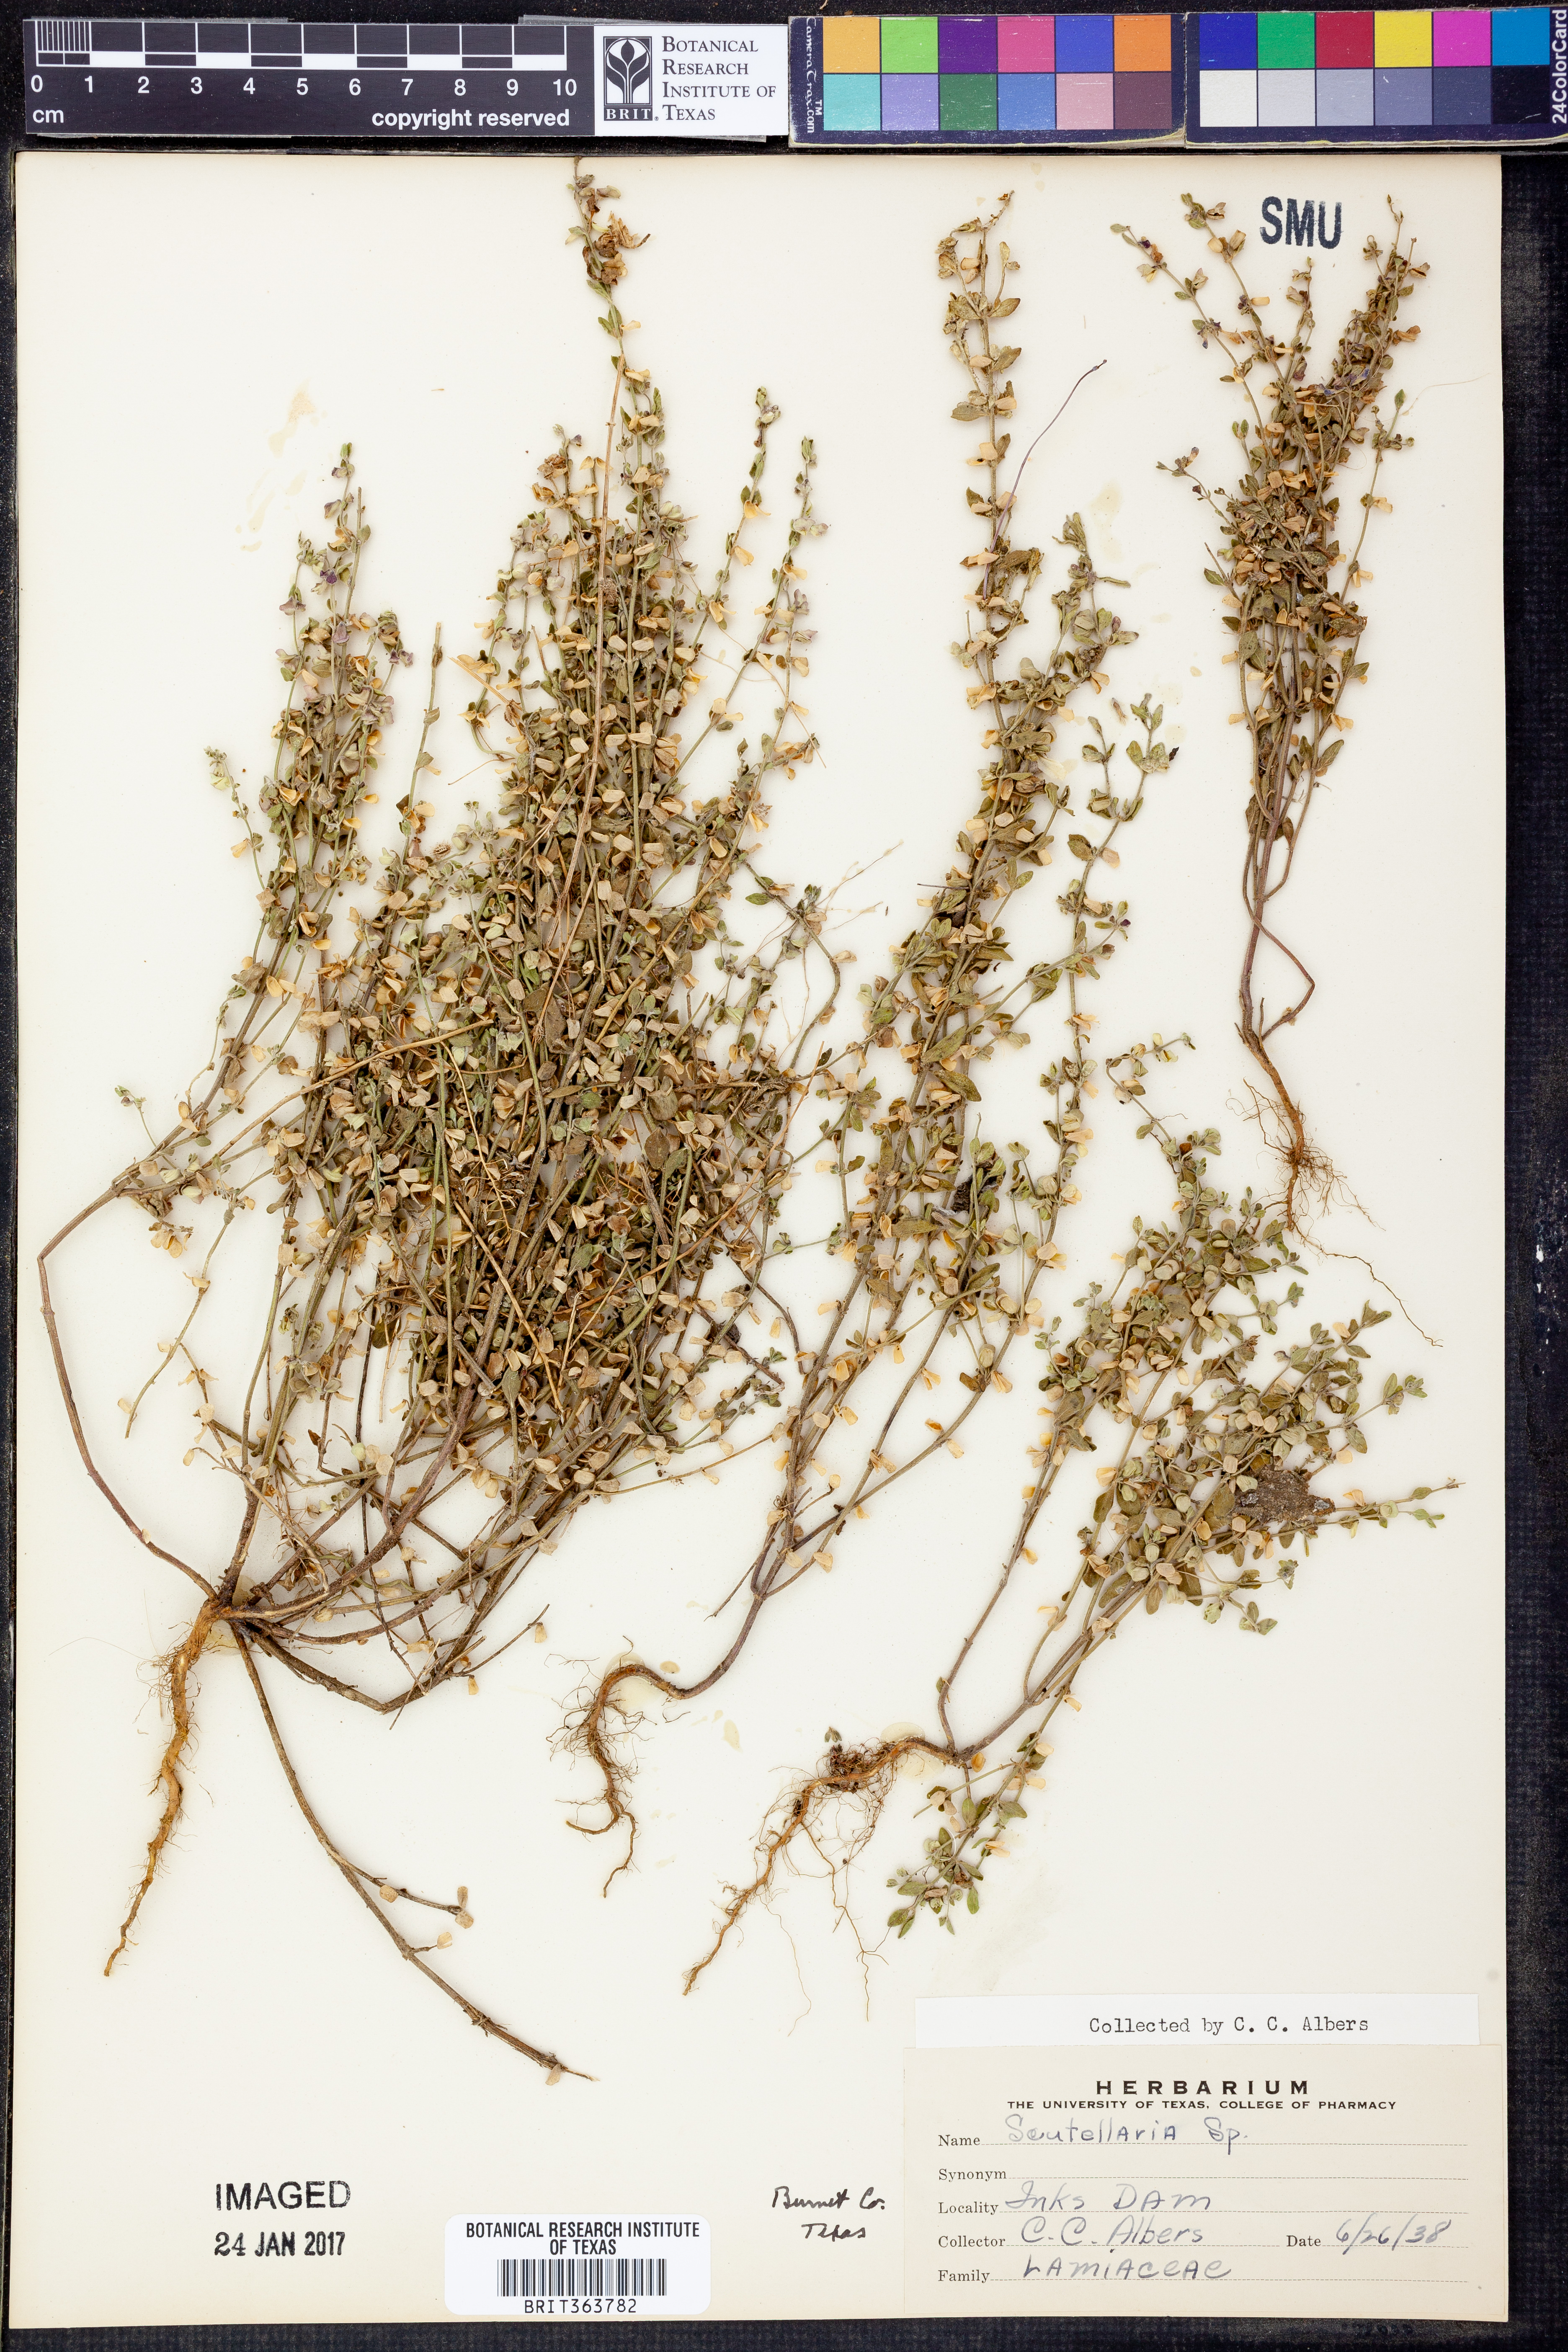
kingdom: Plantae
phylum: Tracheophyta
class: Magnoliopsida
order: Lamiales
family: Lamiaceae
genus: Scutellaria
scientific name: Scutellaria
